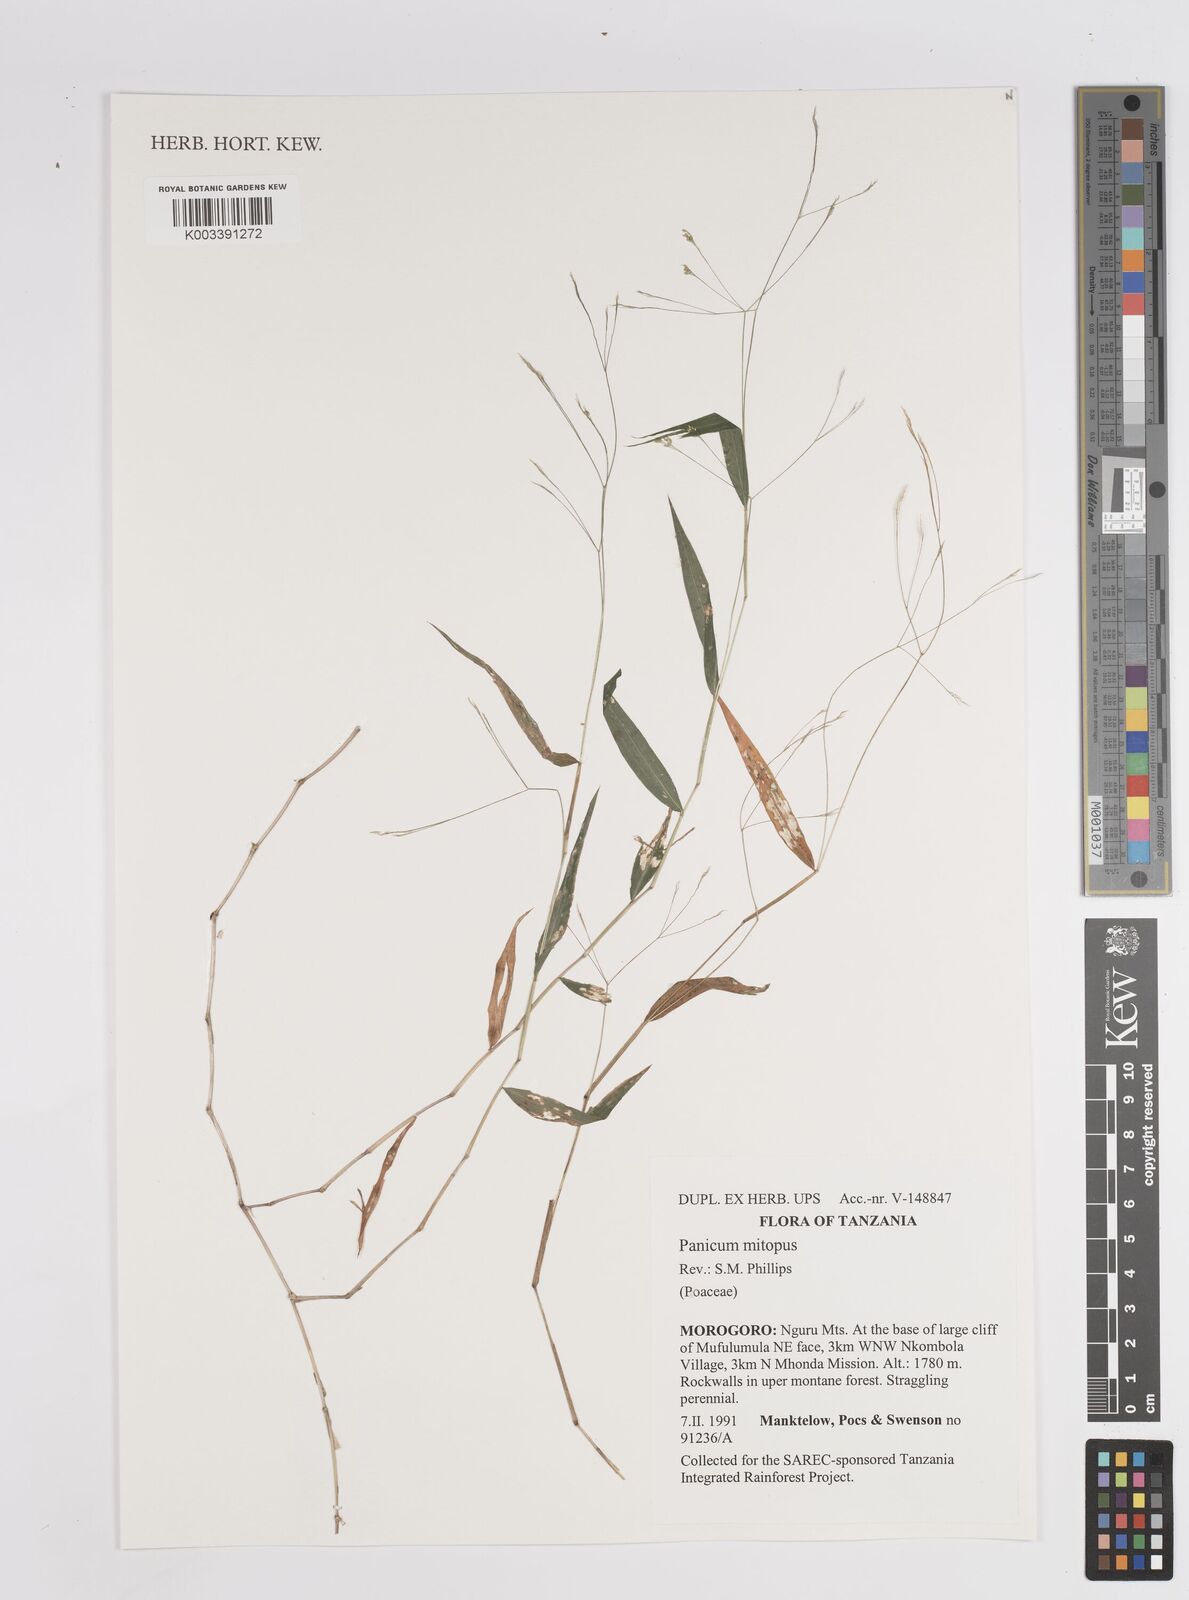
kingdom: Plantae
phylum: Tracheophyta
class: Liliopsida
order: Poales
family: Poaceae
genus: Panicum
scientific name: Panicum mitopus
